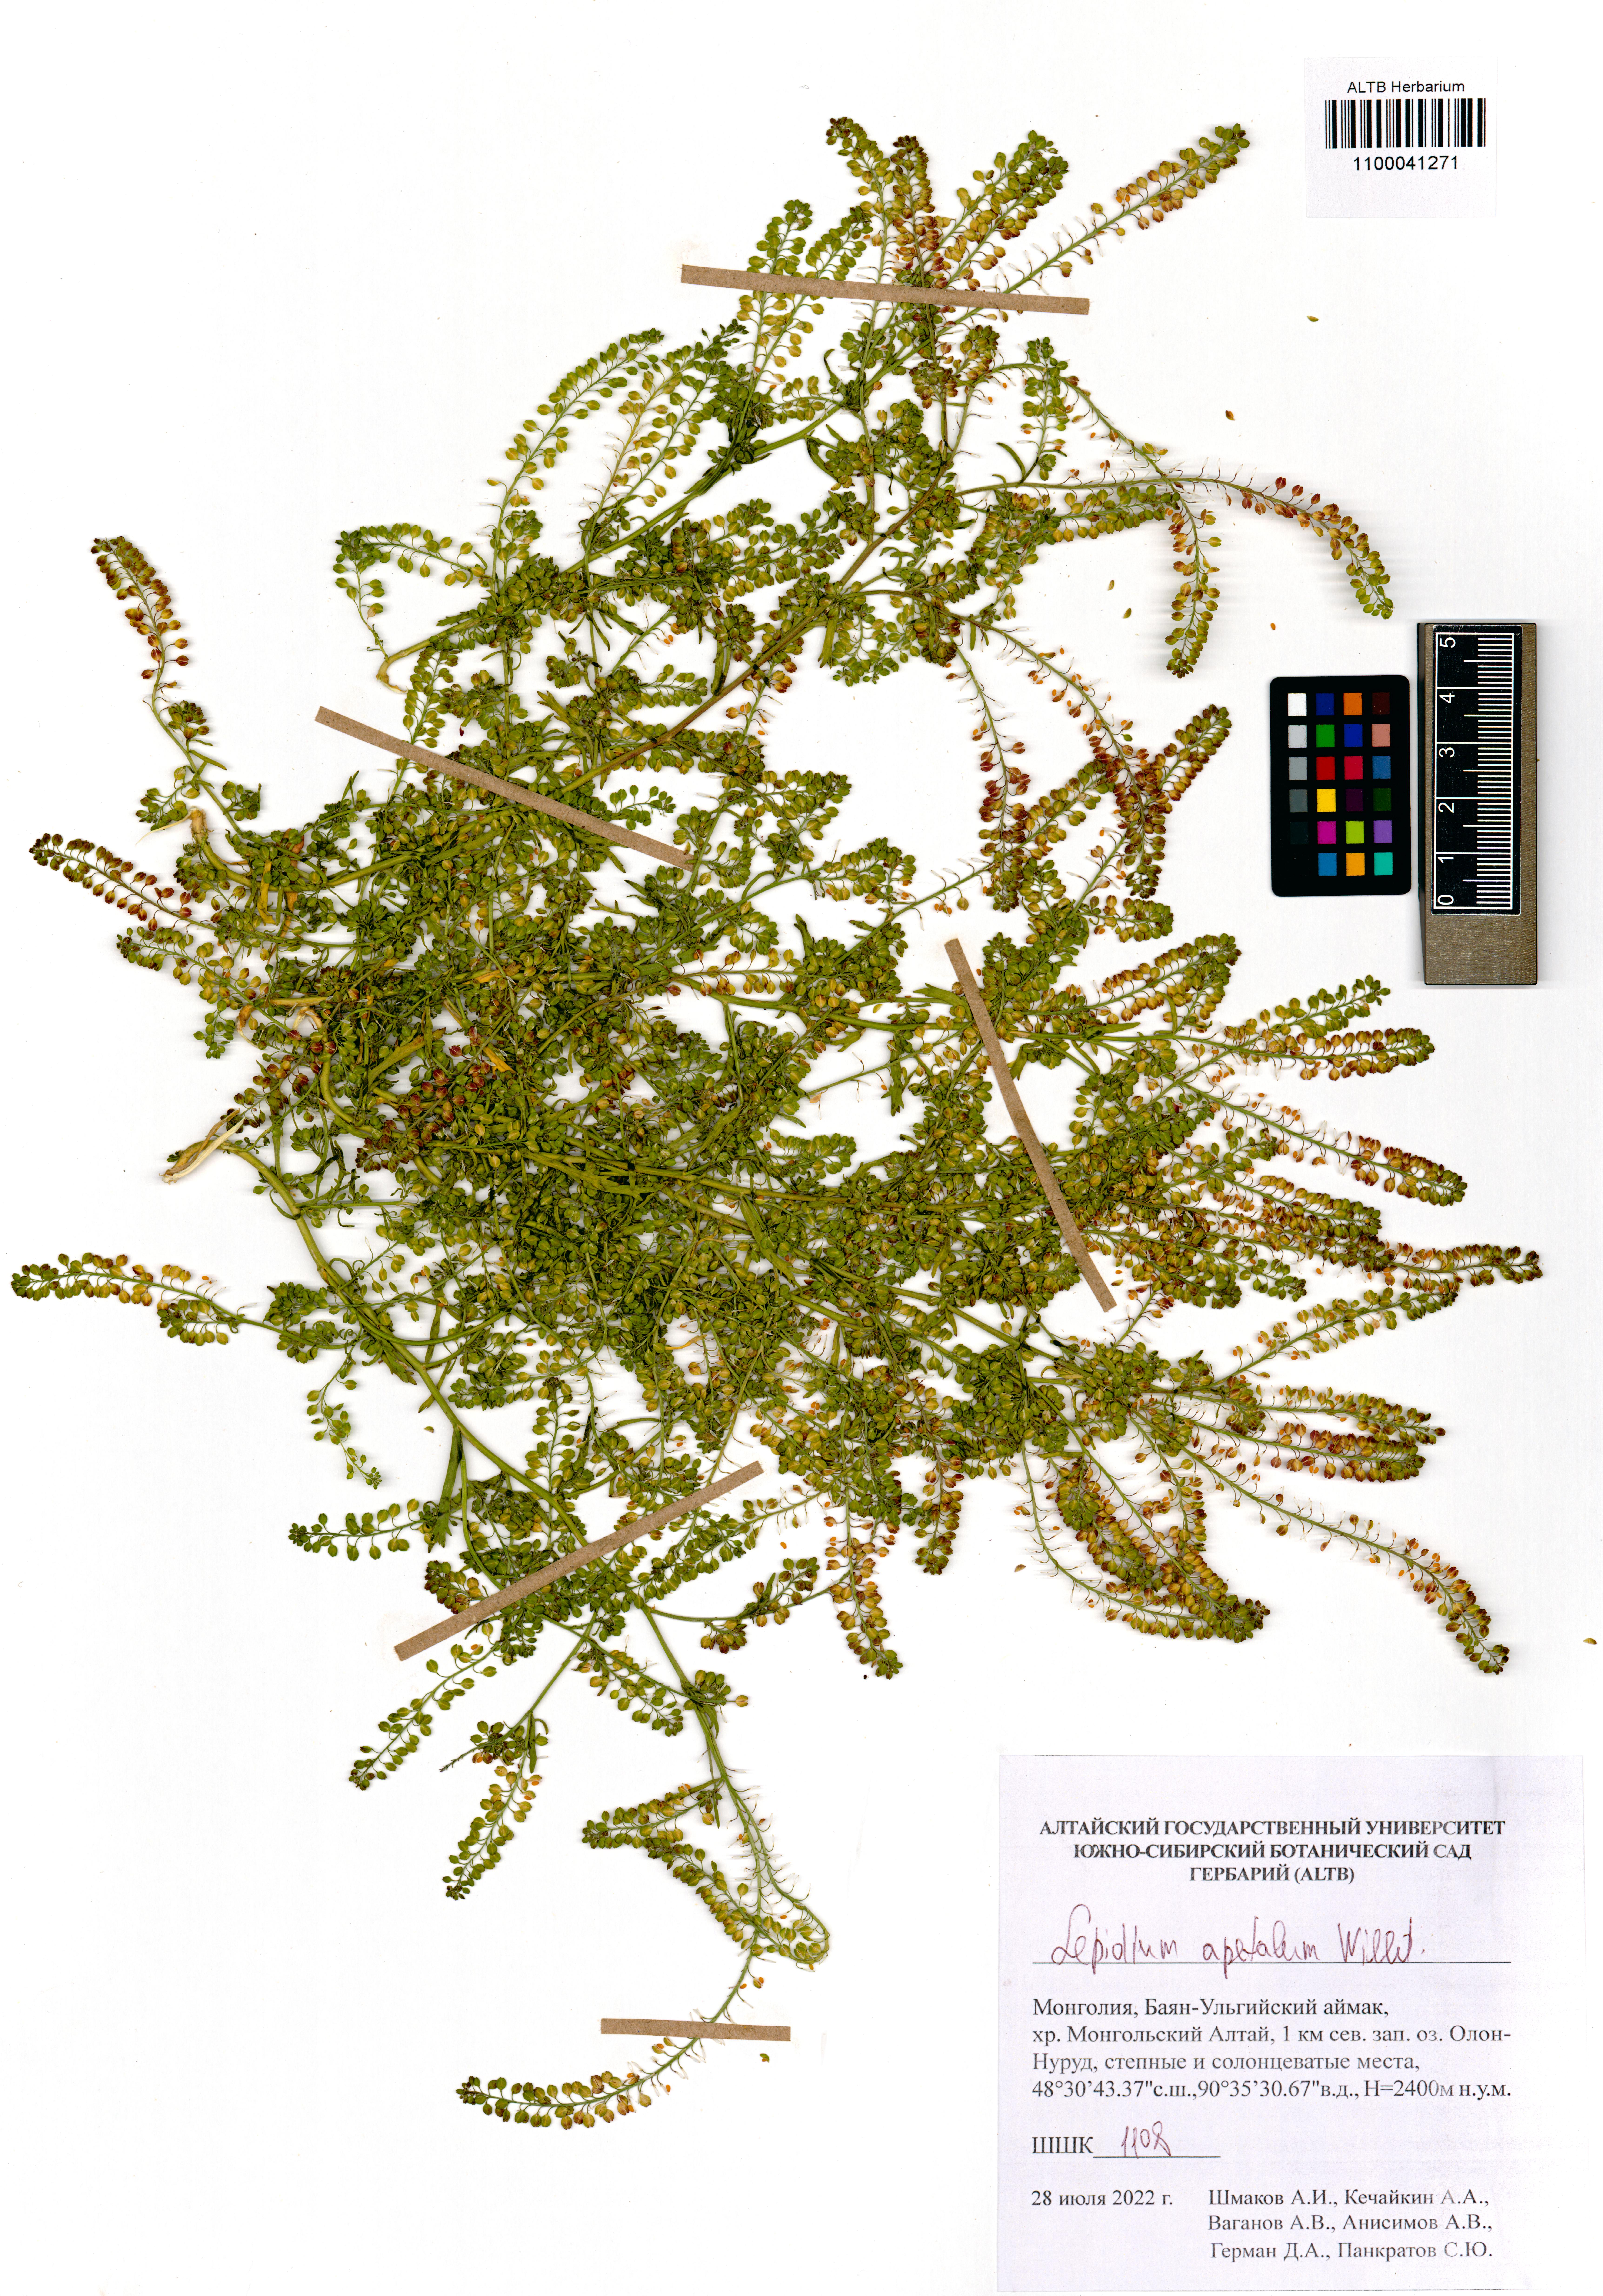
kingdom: Plantae
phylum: Tracheophyta
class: Magnoliopsida
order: Brassicales
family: Brassicaceae
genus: Lepidium
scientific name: Lepidium apetalum
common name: Pepperweed
